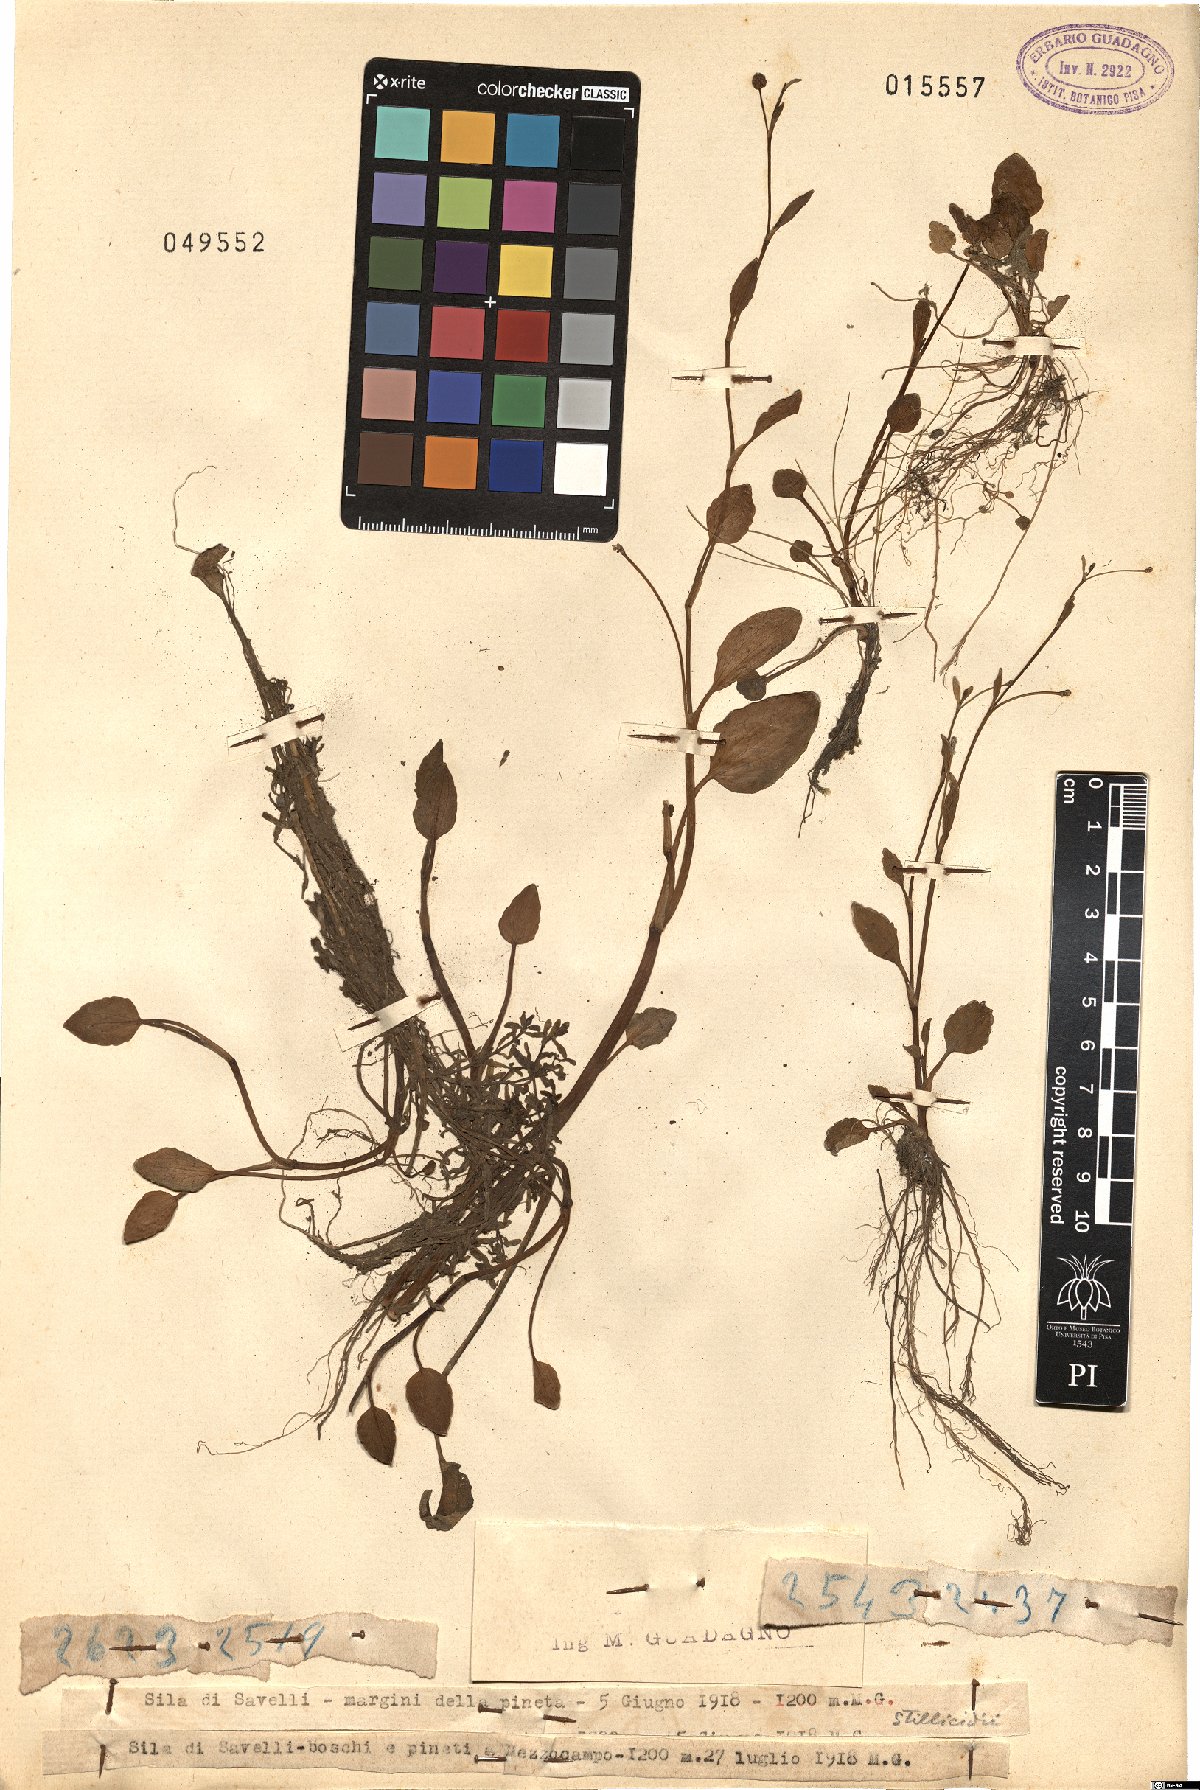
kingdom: Plantae
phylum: Tracheophyta
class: Magnoliopsida
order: Ranunculales
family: Ranunculaceae
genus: Ranunculus
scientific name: Ranunculus
